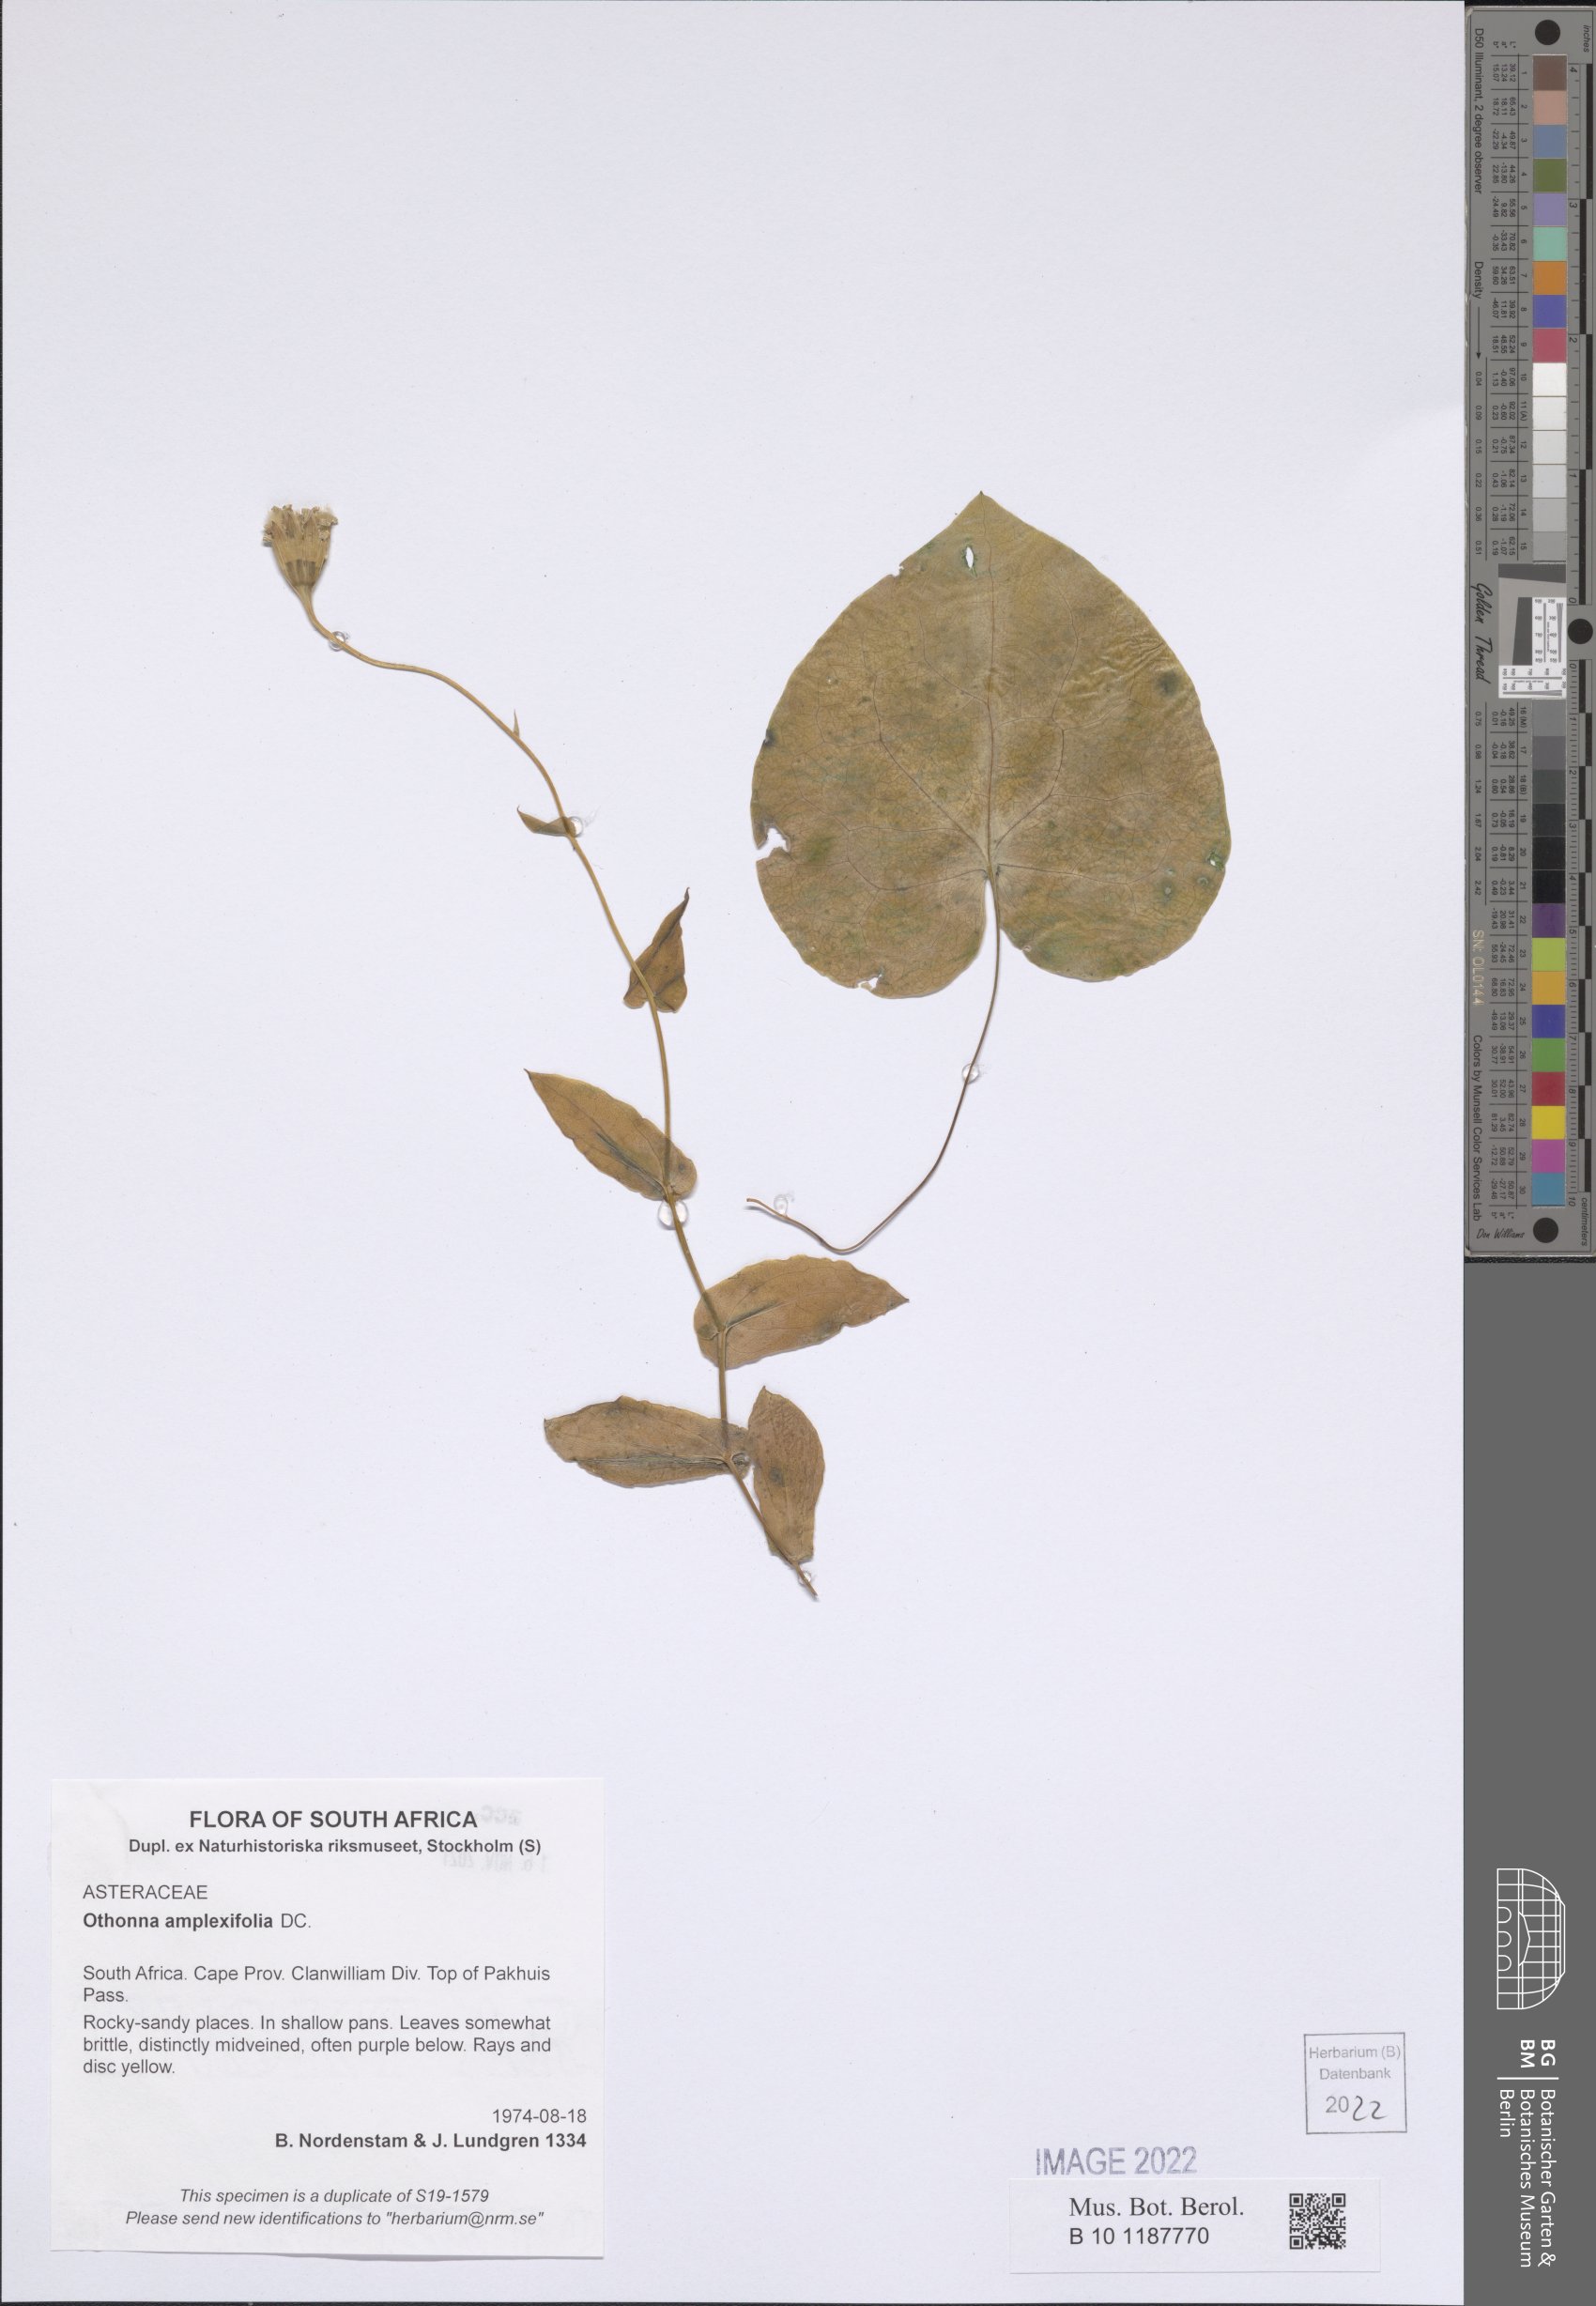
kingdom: Plantae
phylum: Tracheophyta
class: Magnoliopsida
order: Asterales
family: Asteraceae
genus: Othonna
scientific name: Othonna amplexifolia
